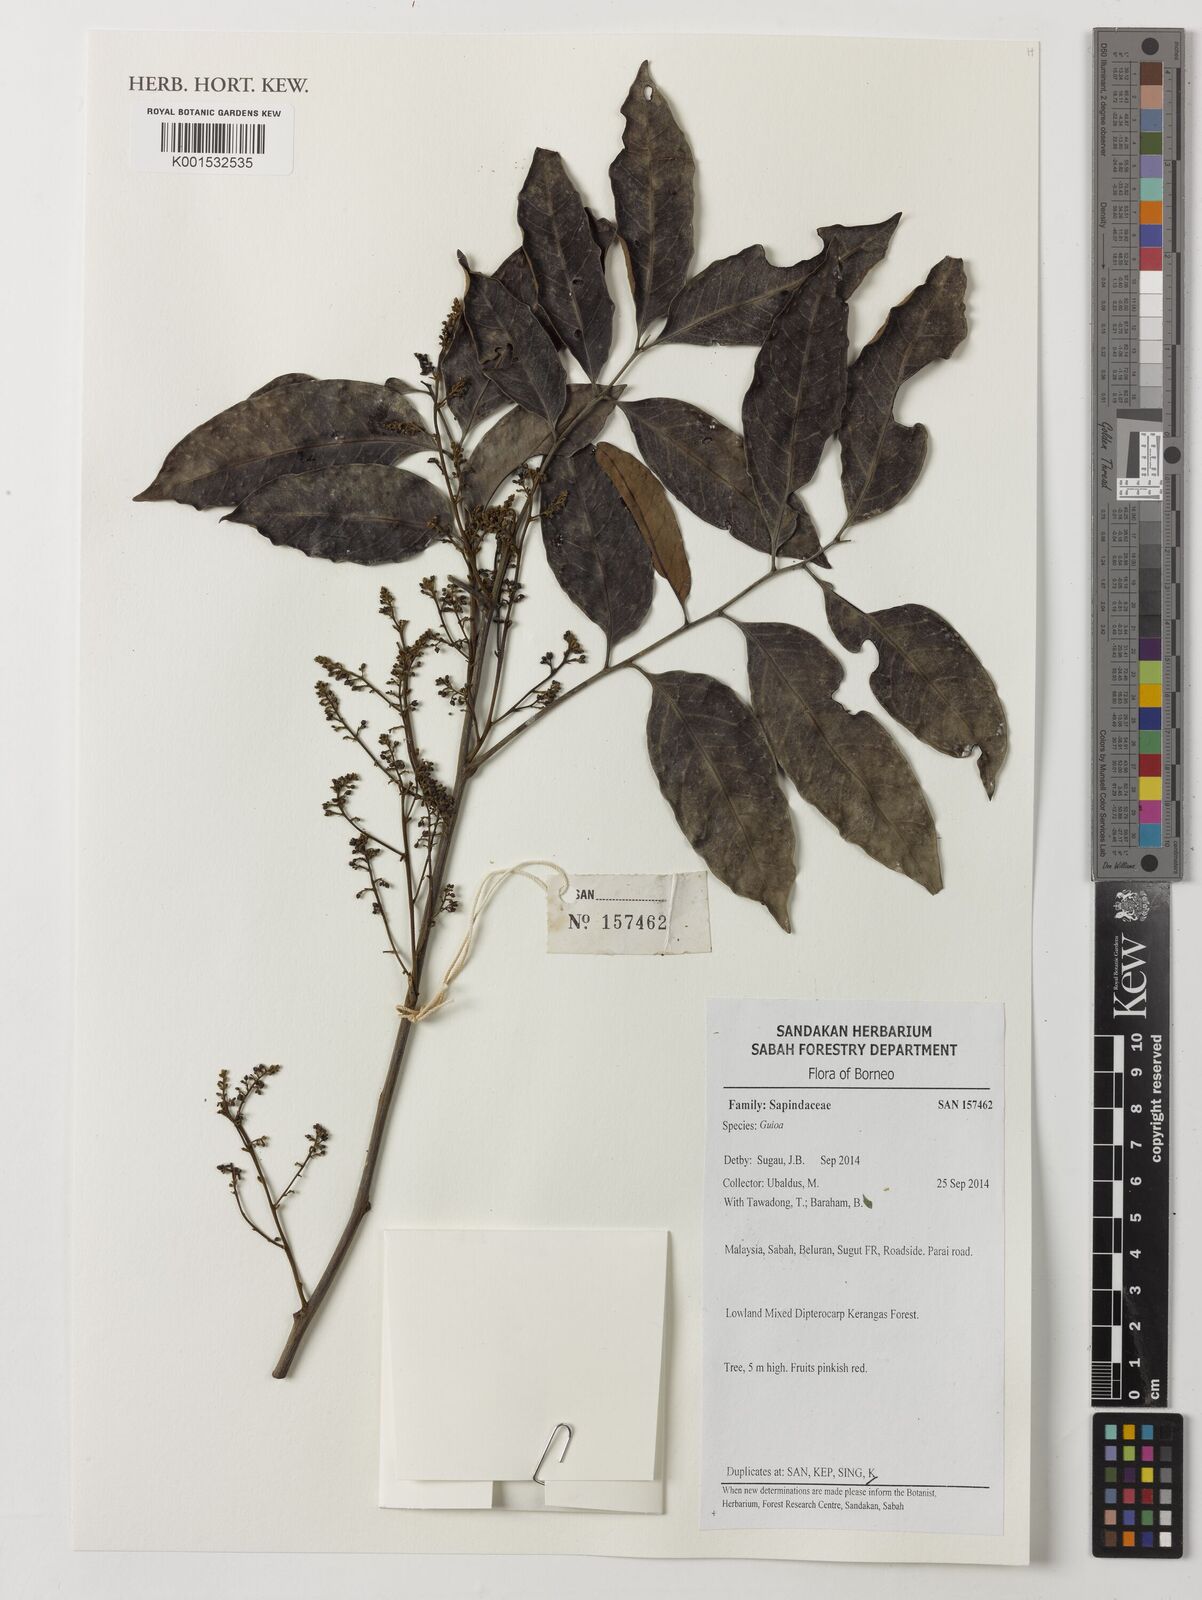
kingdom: Plantae
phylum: Tracheophyta
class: Magnoliopsida
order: Sapindales
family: Sapindaceae
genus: Guioa
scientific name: Guioa
